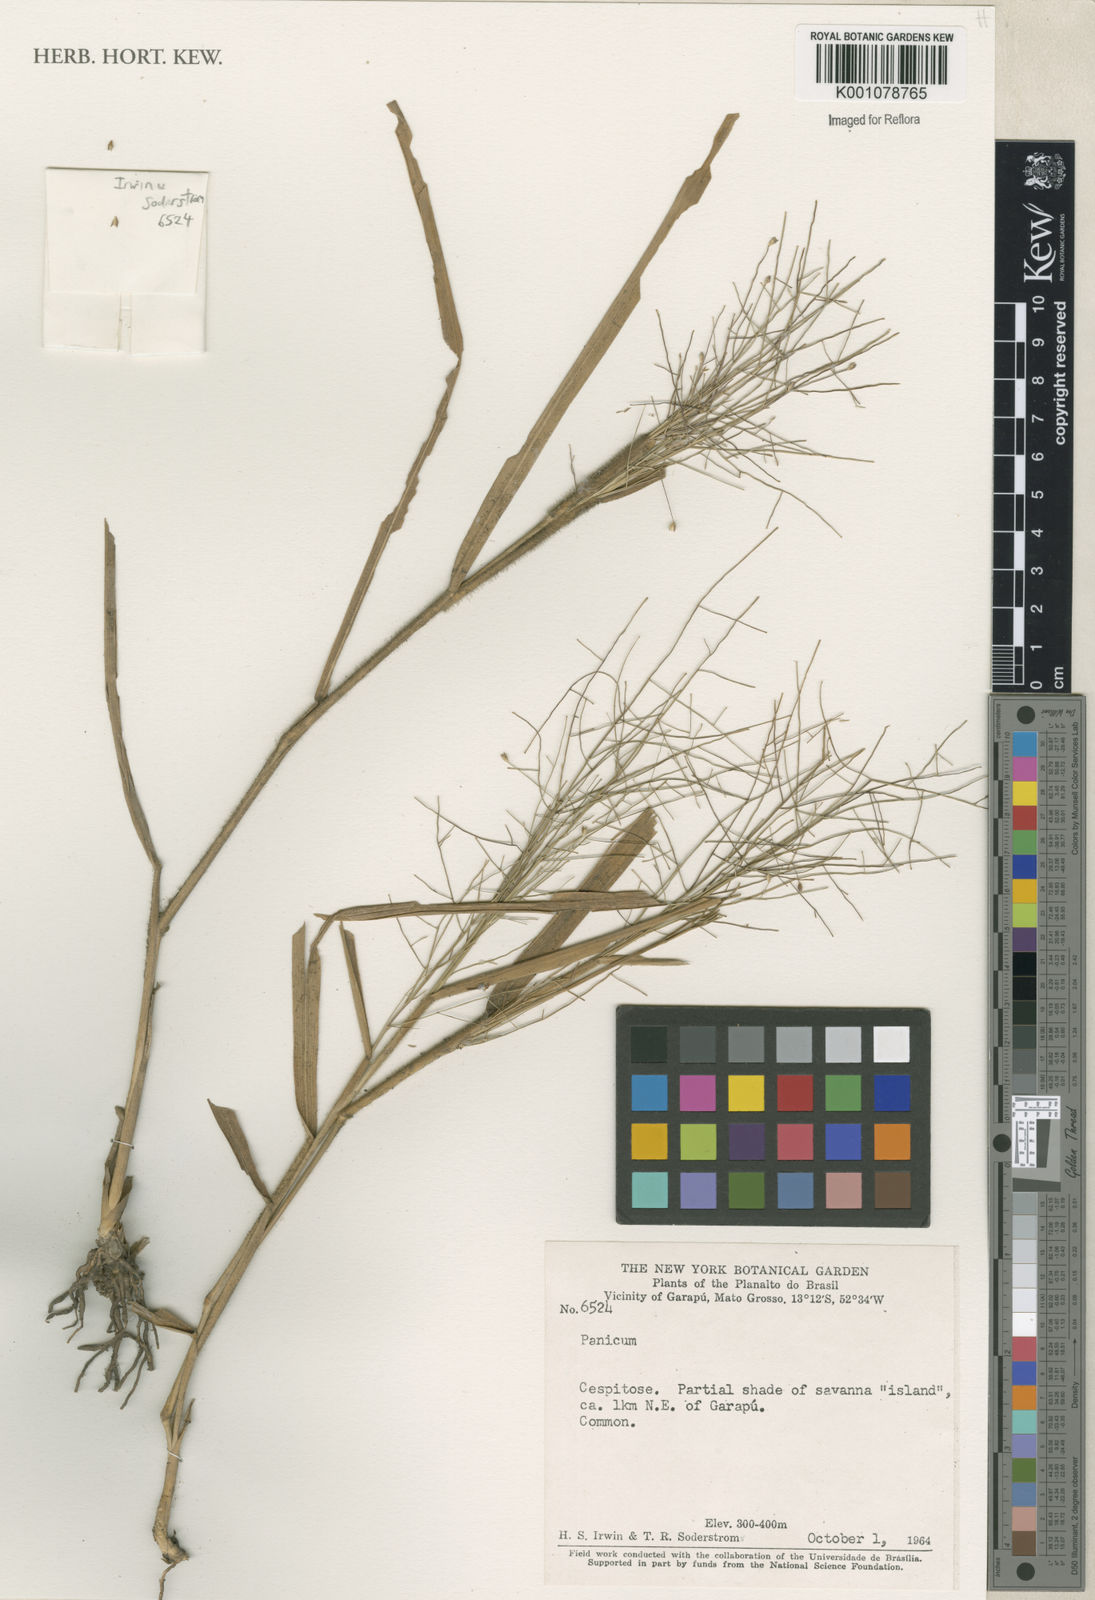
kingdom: Plantae
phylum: Tracheophyta
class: Liliopsida
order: Poales
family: Poaceae
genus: Panicum
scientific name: Panicum
